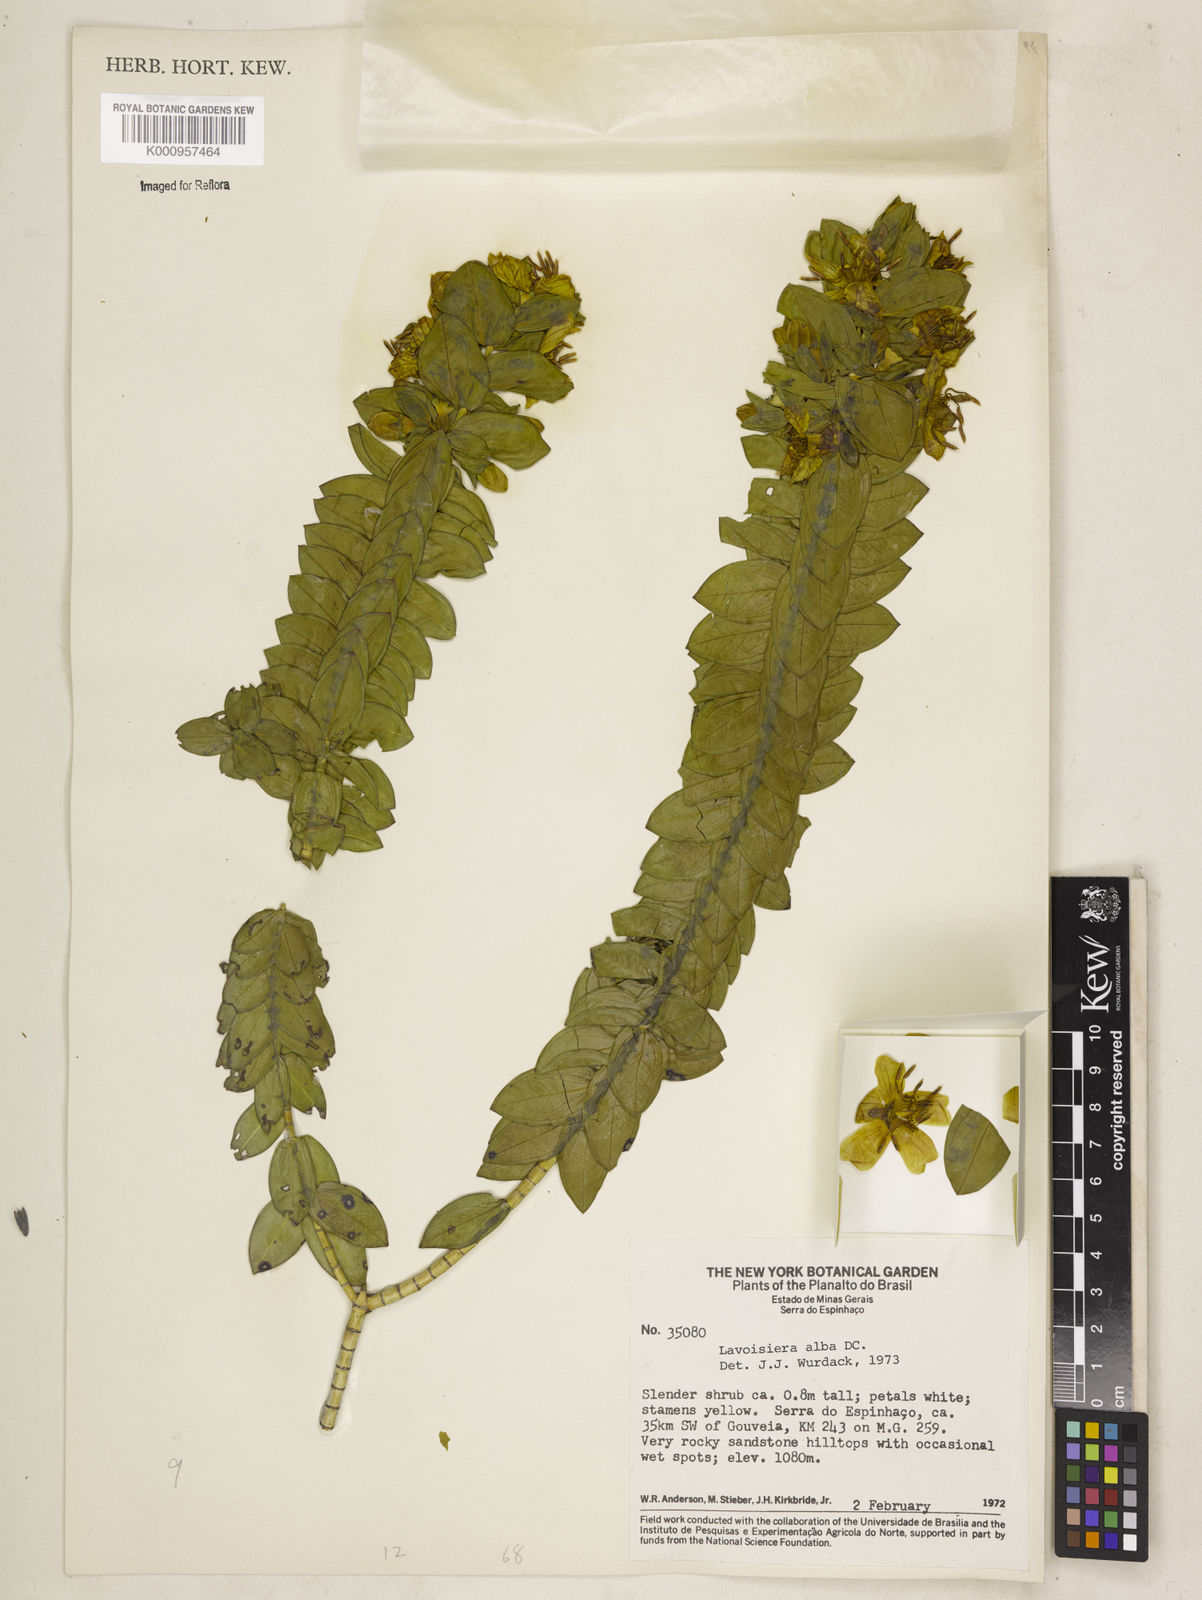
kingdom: Plantae
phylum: Tracheophyta
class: Magnoliopsida
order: Myrtales
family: Melastomataceae
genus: Microlicia
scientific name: Microlicia alba
